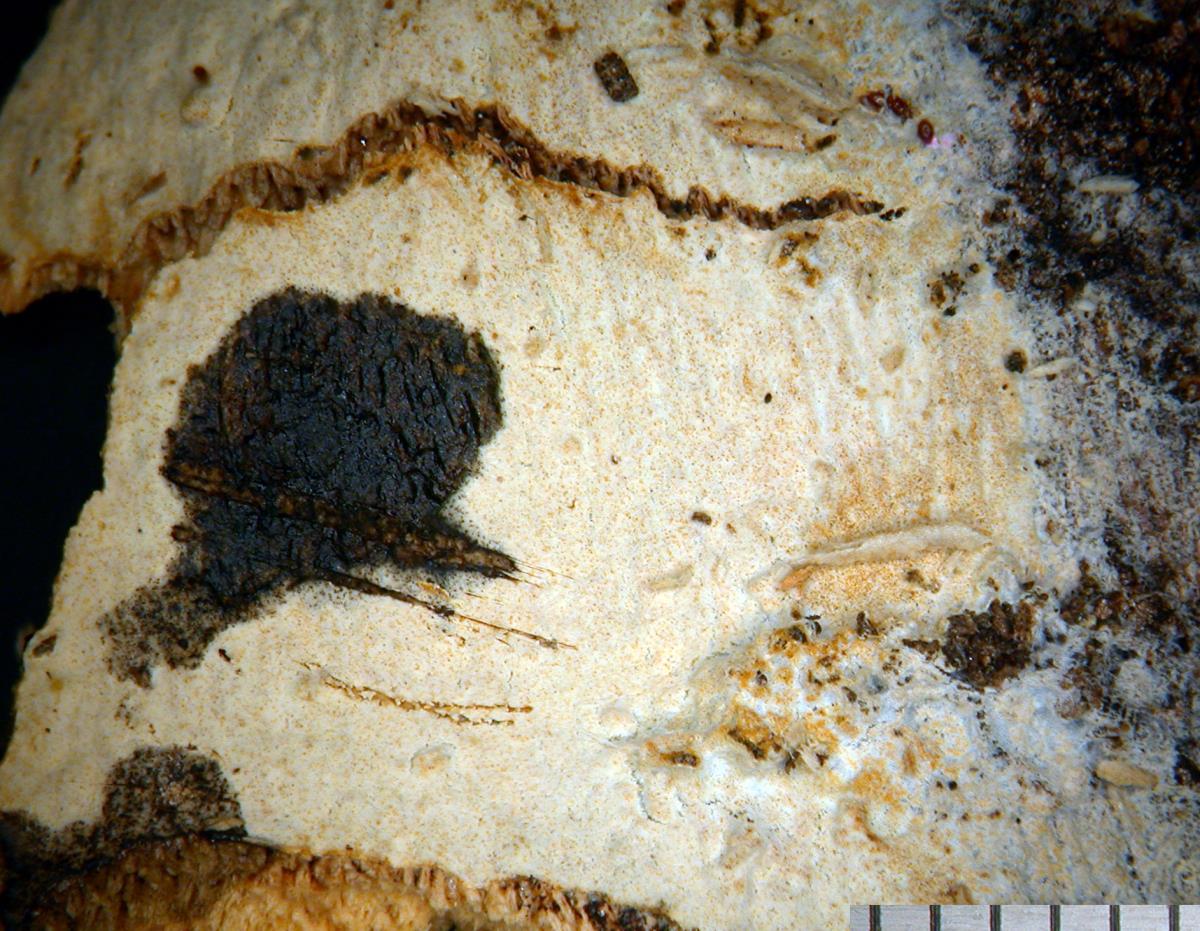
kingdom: Fungi
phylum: Basidiomycota
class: Agaricomycetes
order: Polyporales
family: Hyphodermataceae
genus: Hyphoderma
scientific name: Hyphoderma medioburiense
